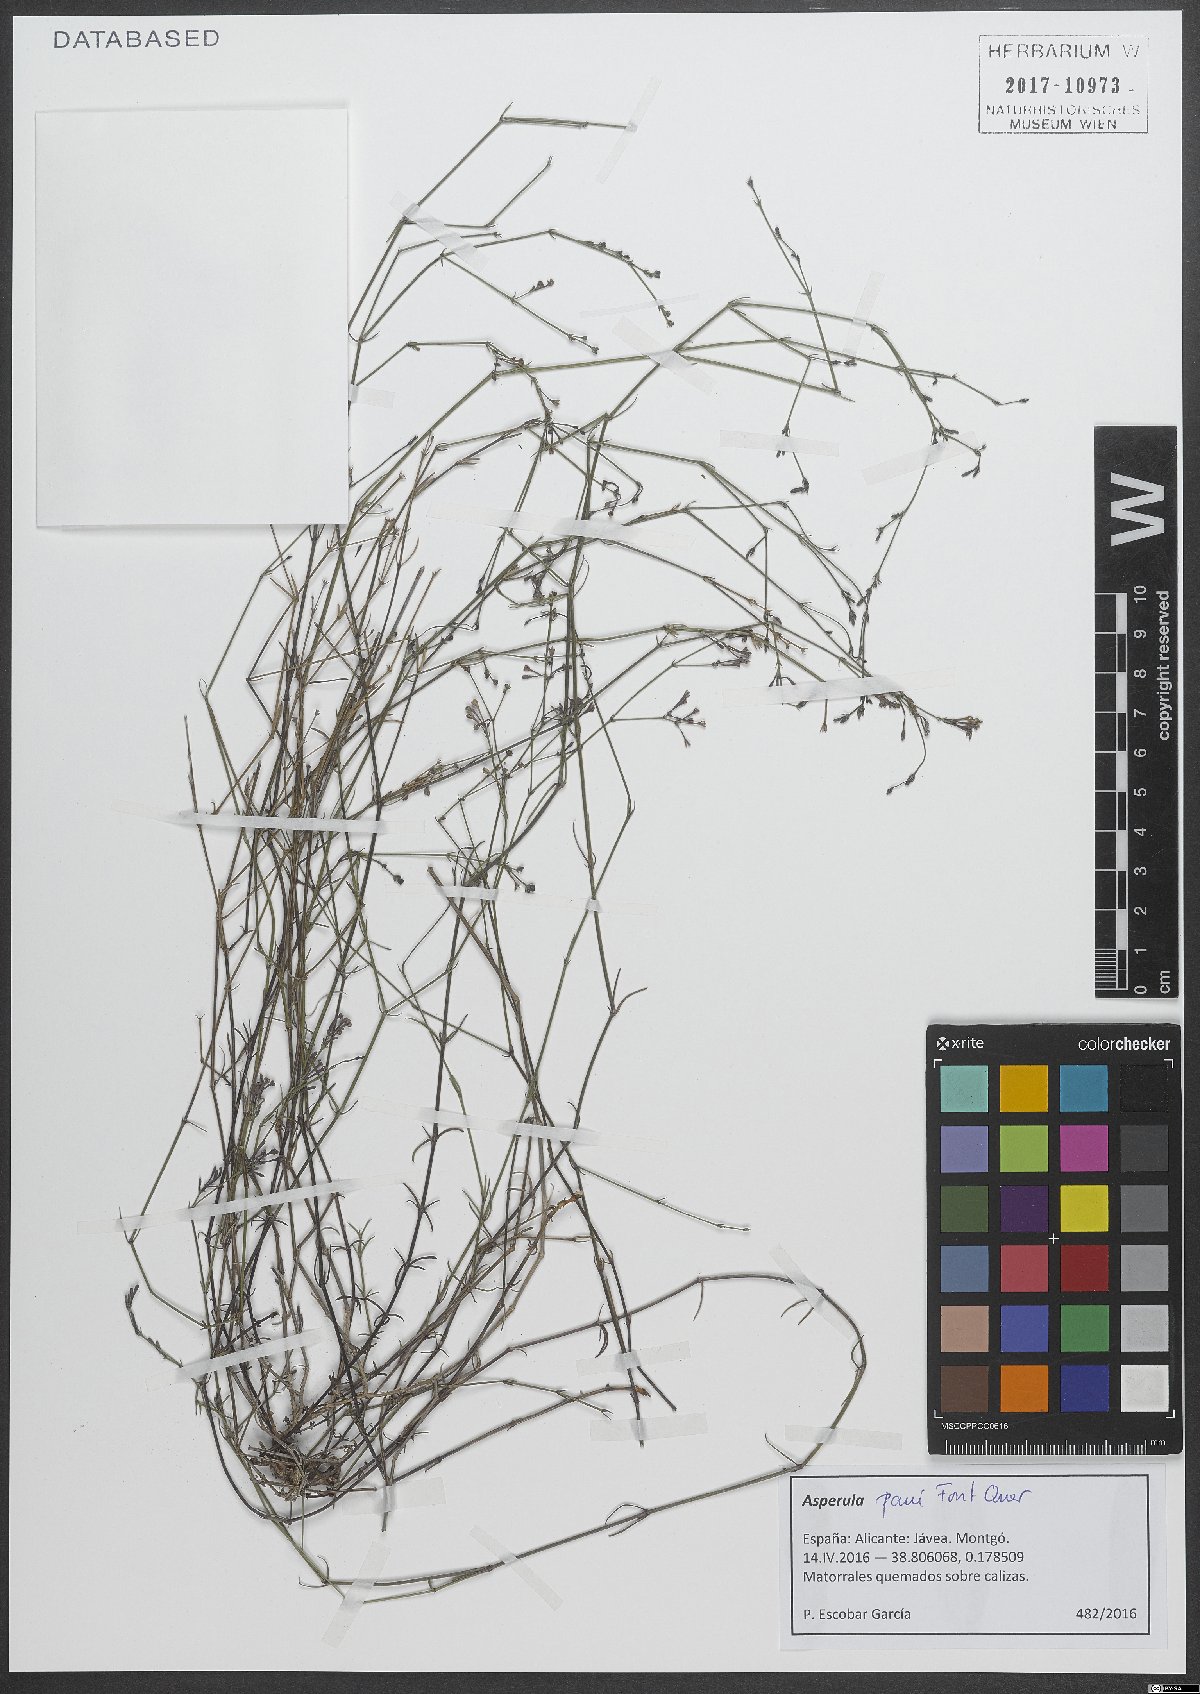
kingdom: Plantae
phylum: Tracheophyta
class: Magnoliopsida
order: Gentianales
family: Rubiaceae
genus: Cynanchica
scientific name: Cynanchica paui
